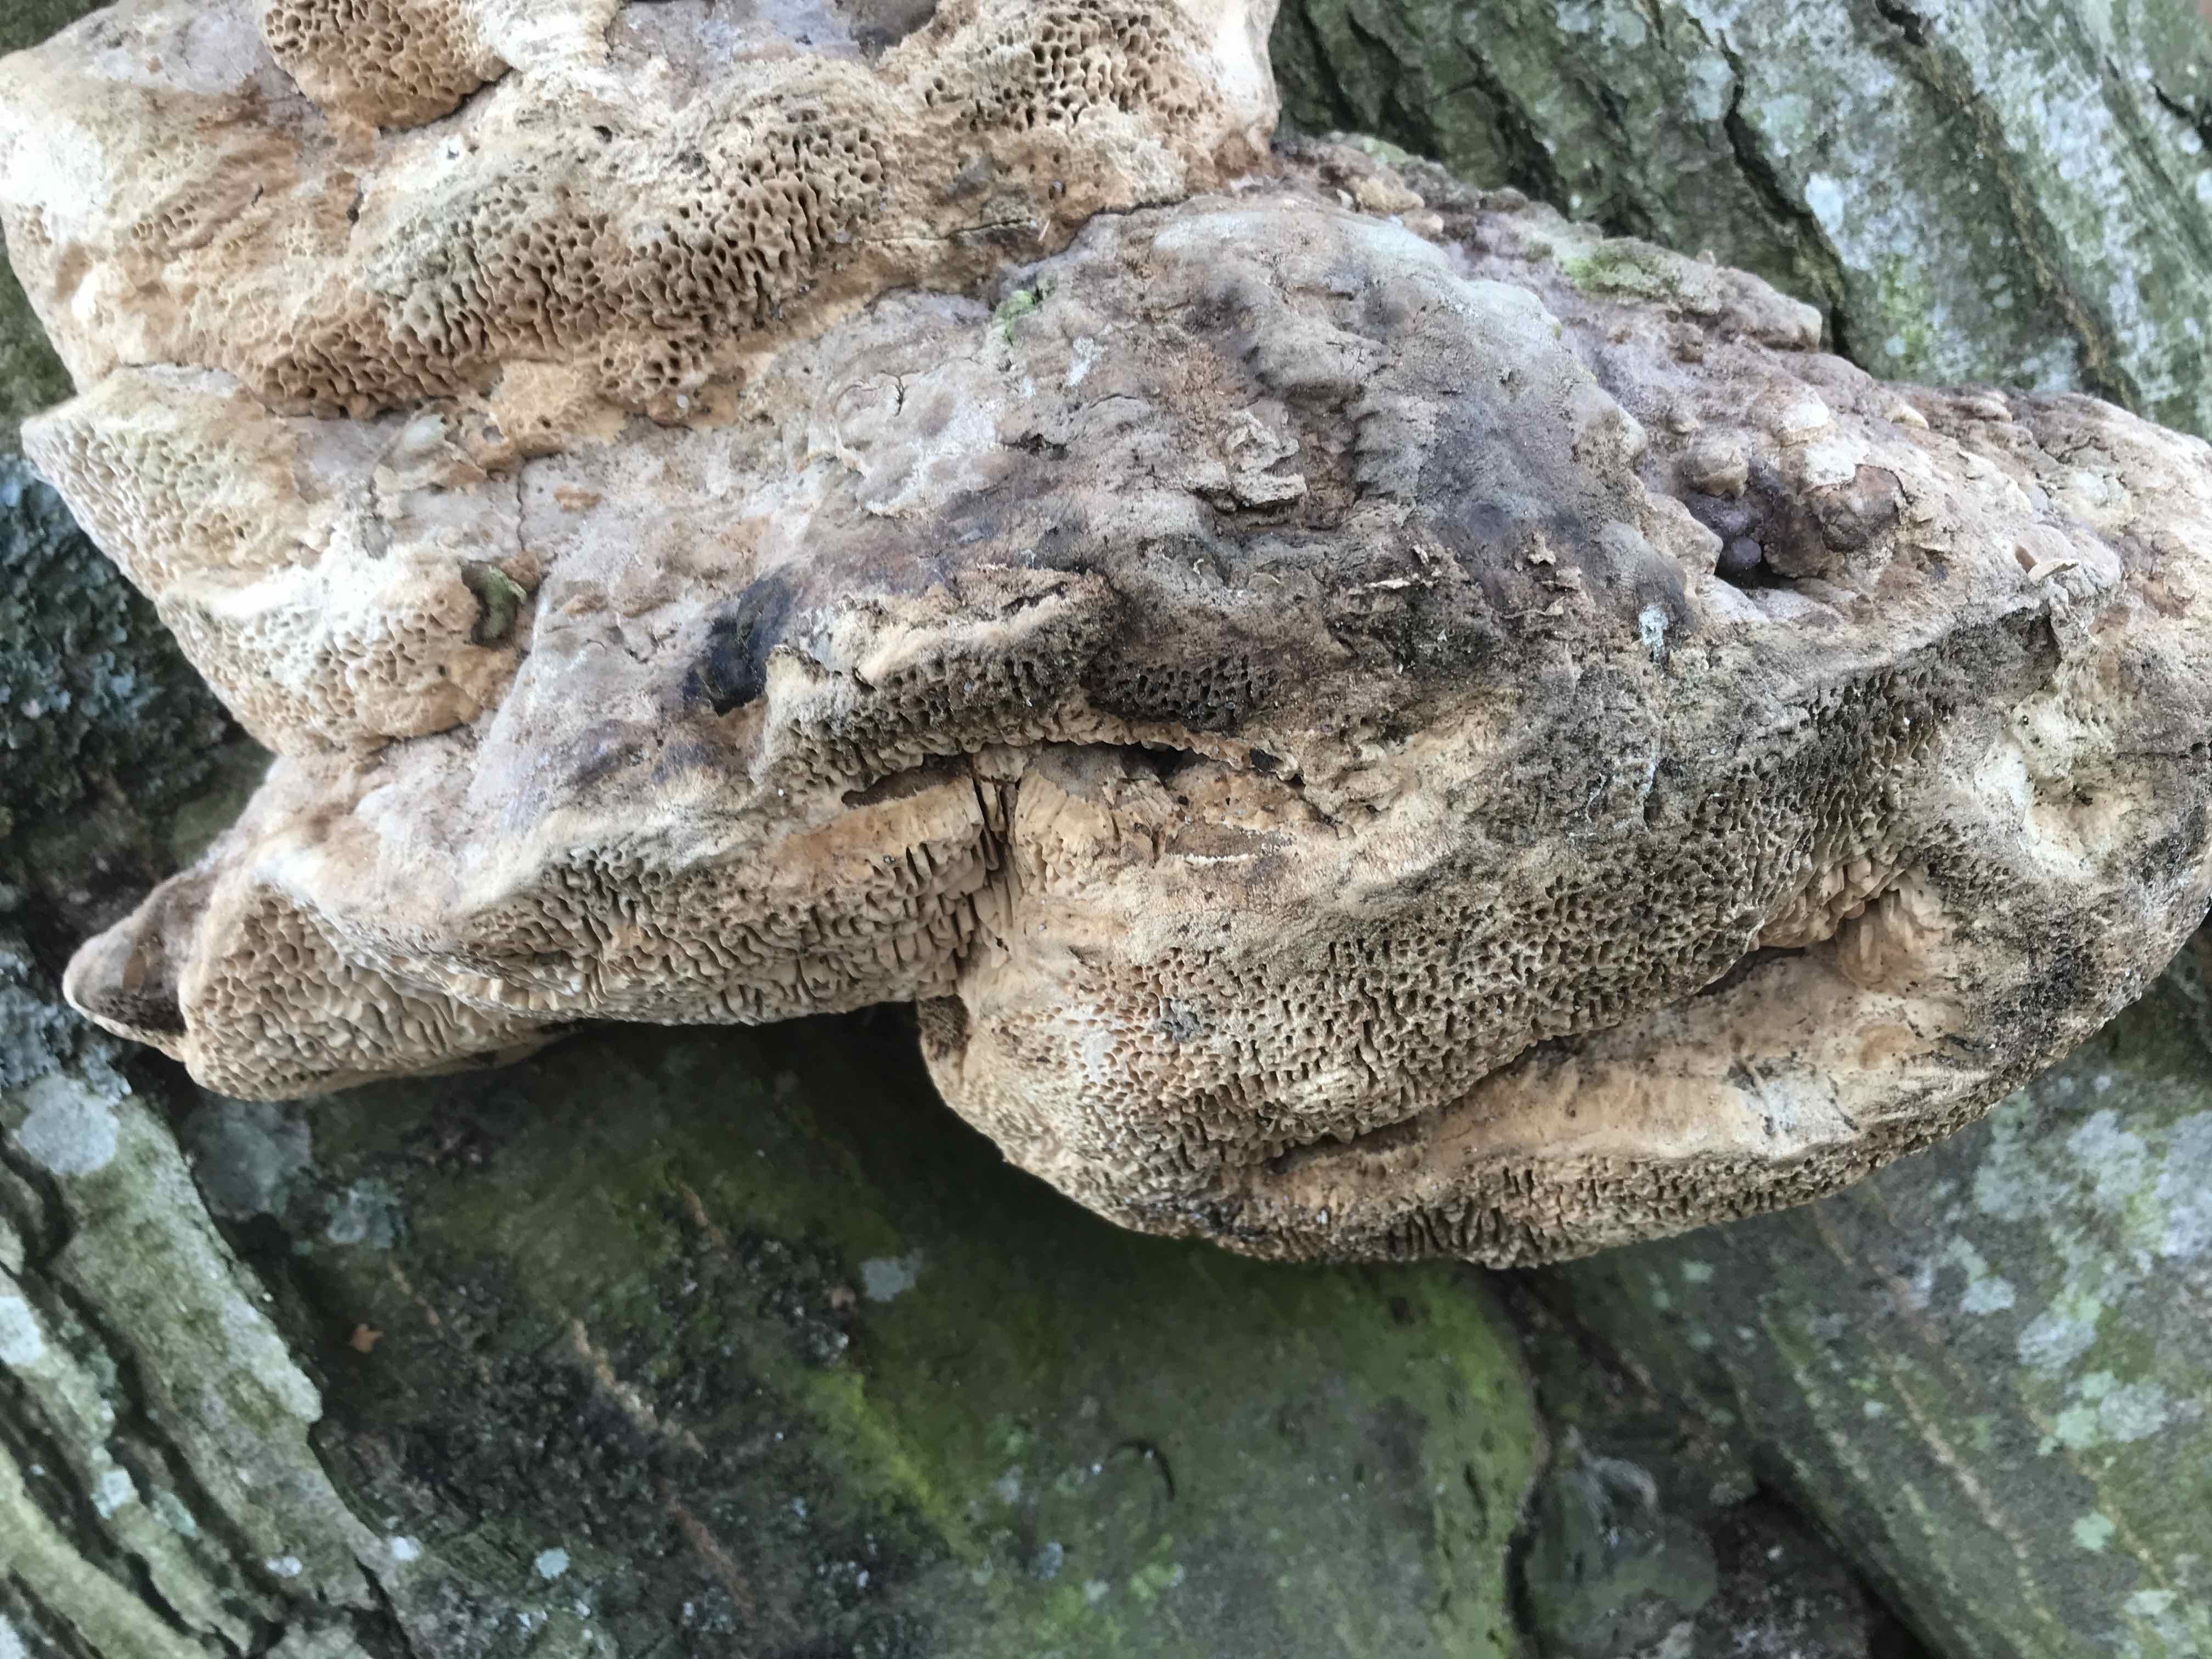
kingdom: Fungi
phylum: Basidiomycota
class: Agaricomycetes
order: Polyporales
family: Fomitopsidaceae
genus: Daedalea
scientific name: Daedalea quercina
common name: ege-labyrintsvamp
